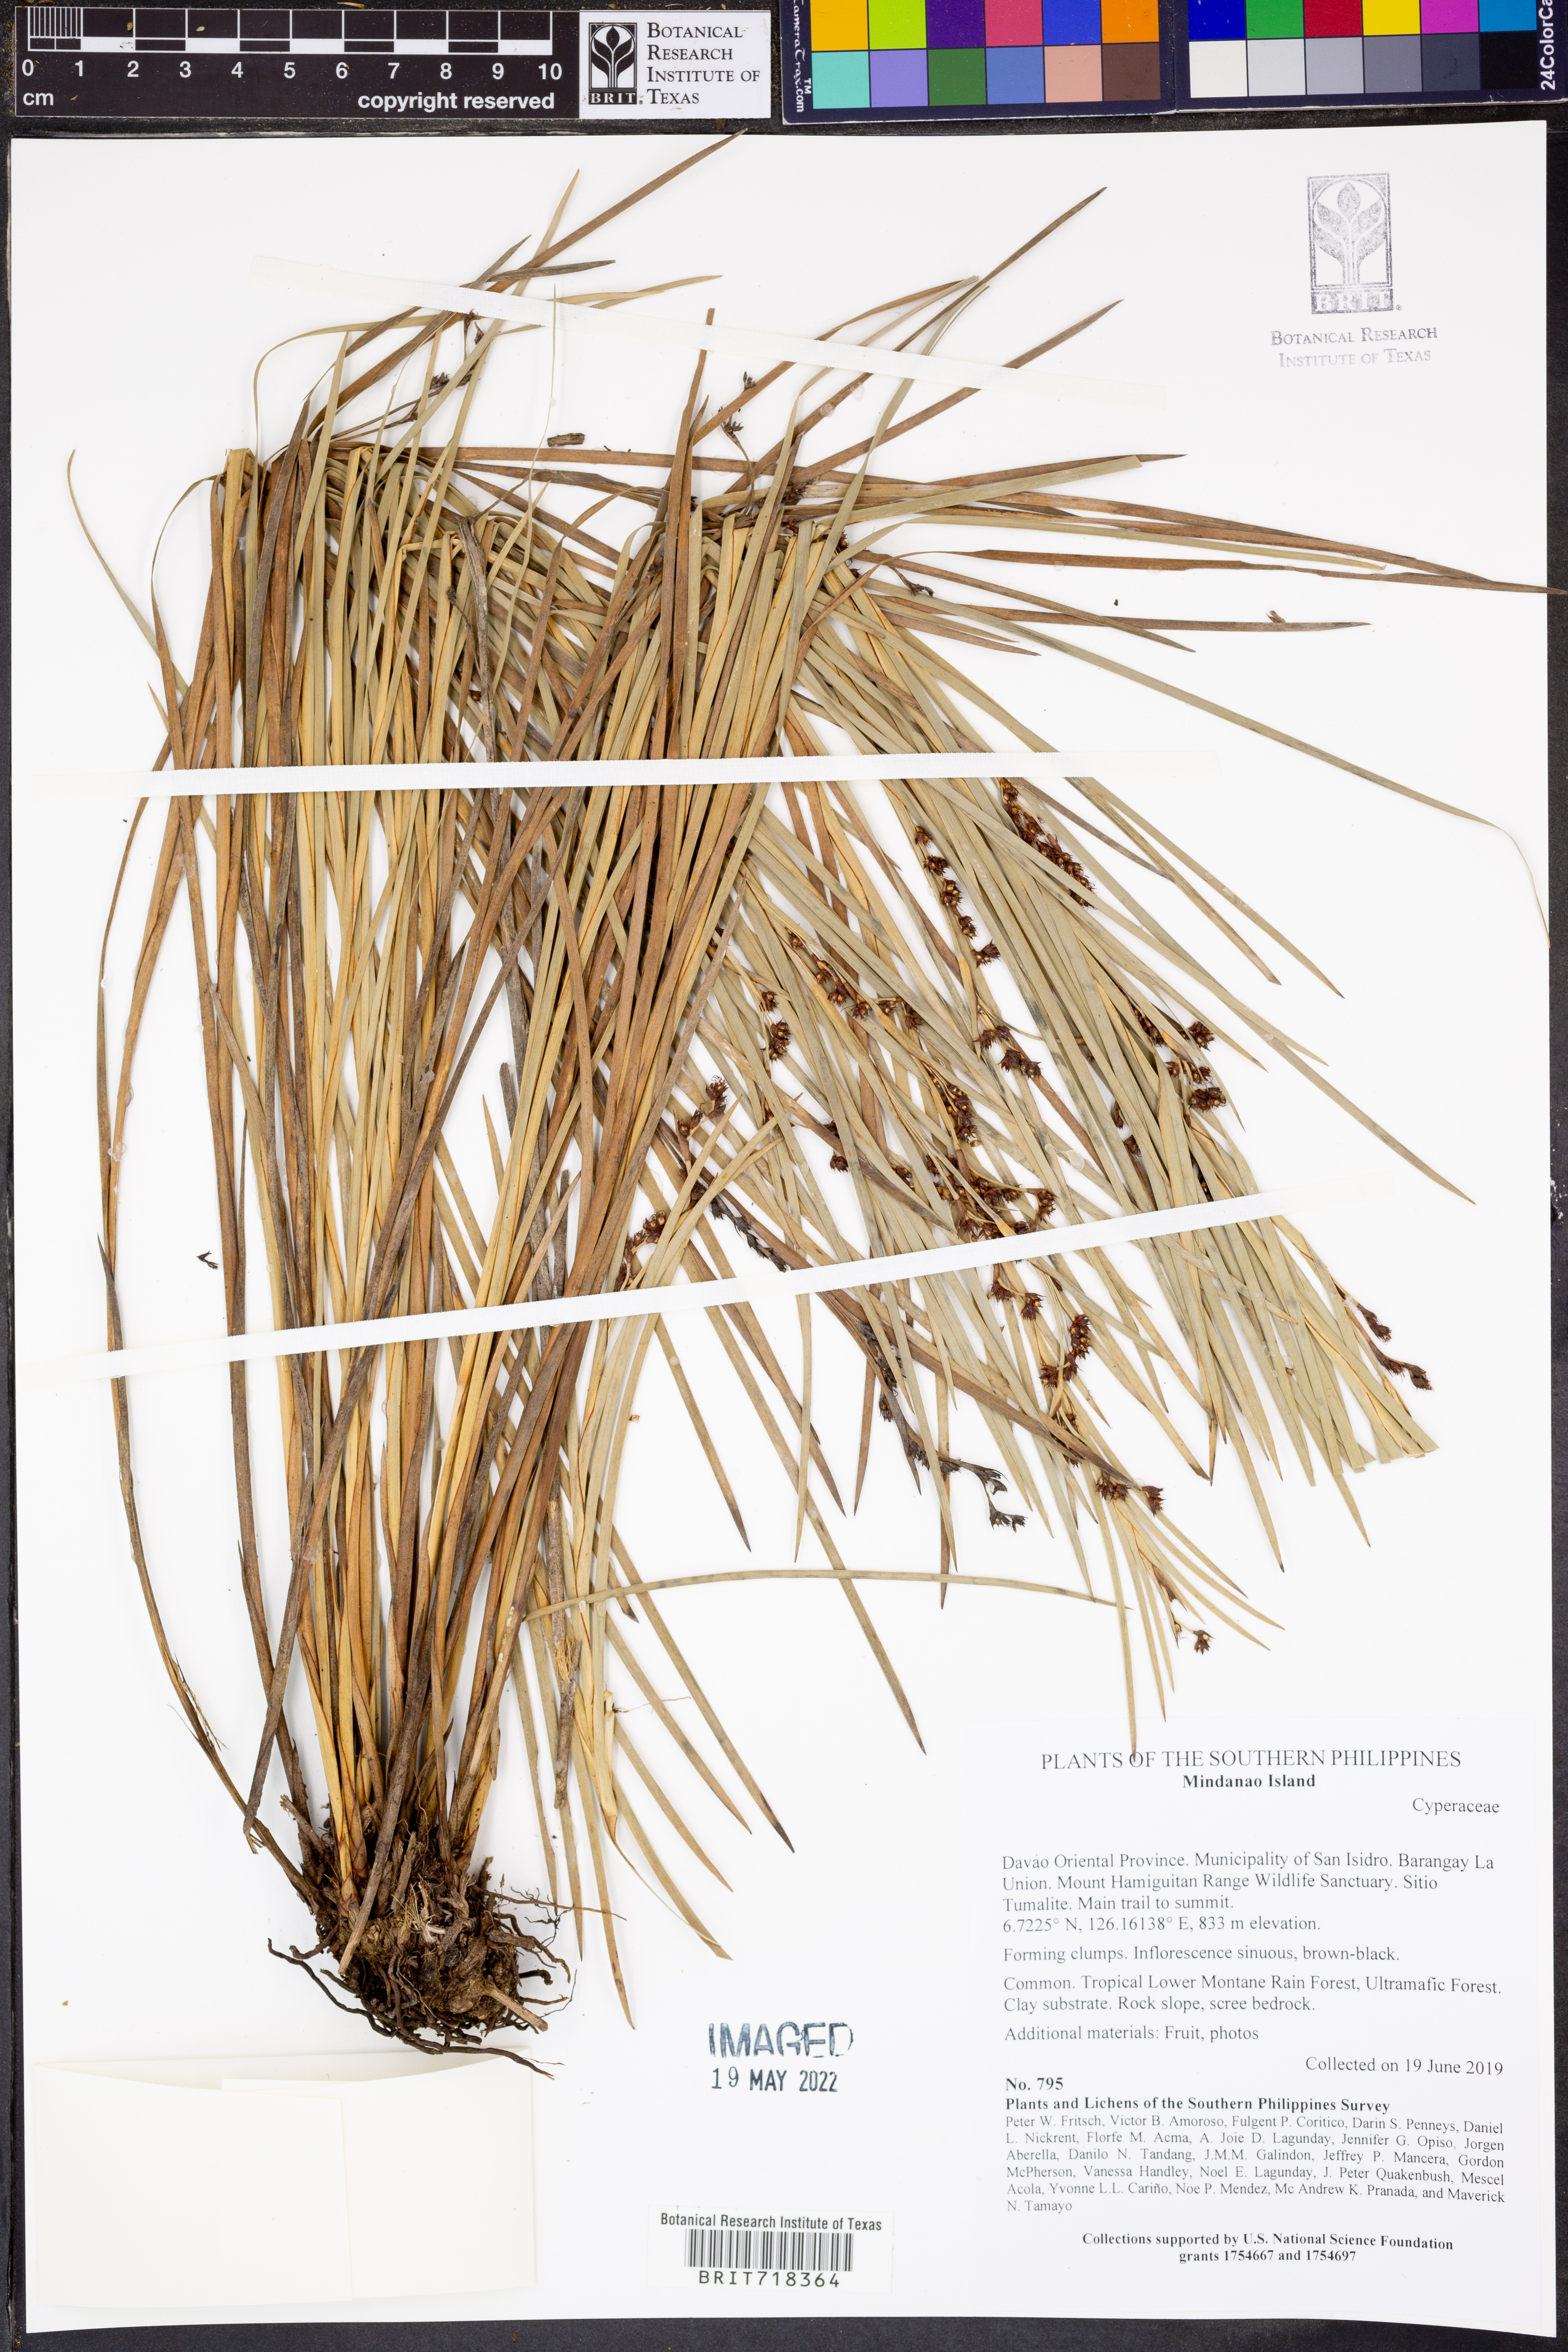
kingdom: Plantae
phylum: Tracheophyta
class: Liliopsida
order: Poales
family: Cyperaceae
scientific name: Cyperaceae
